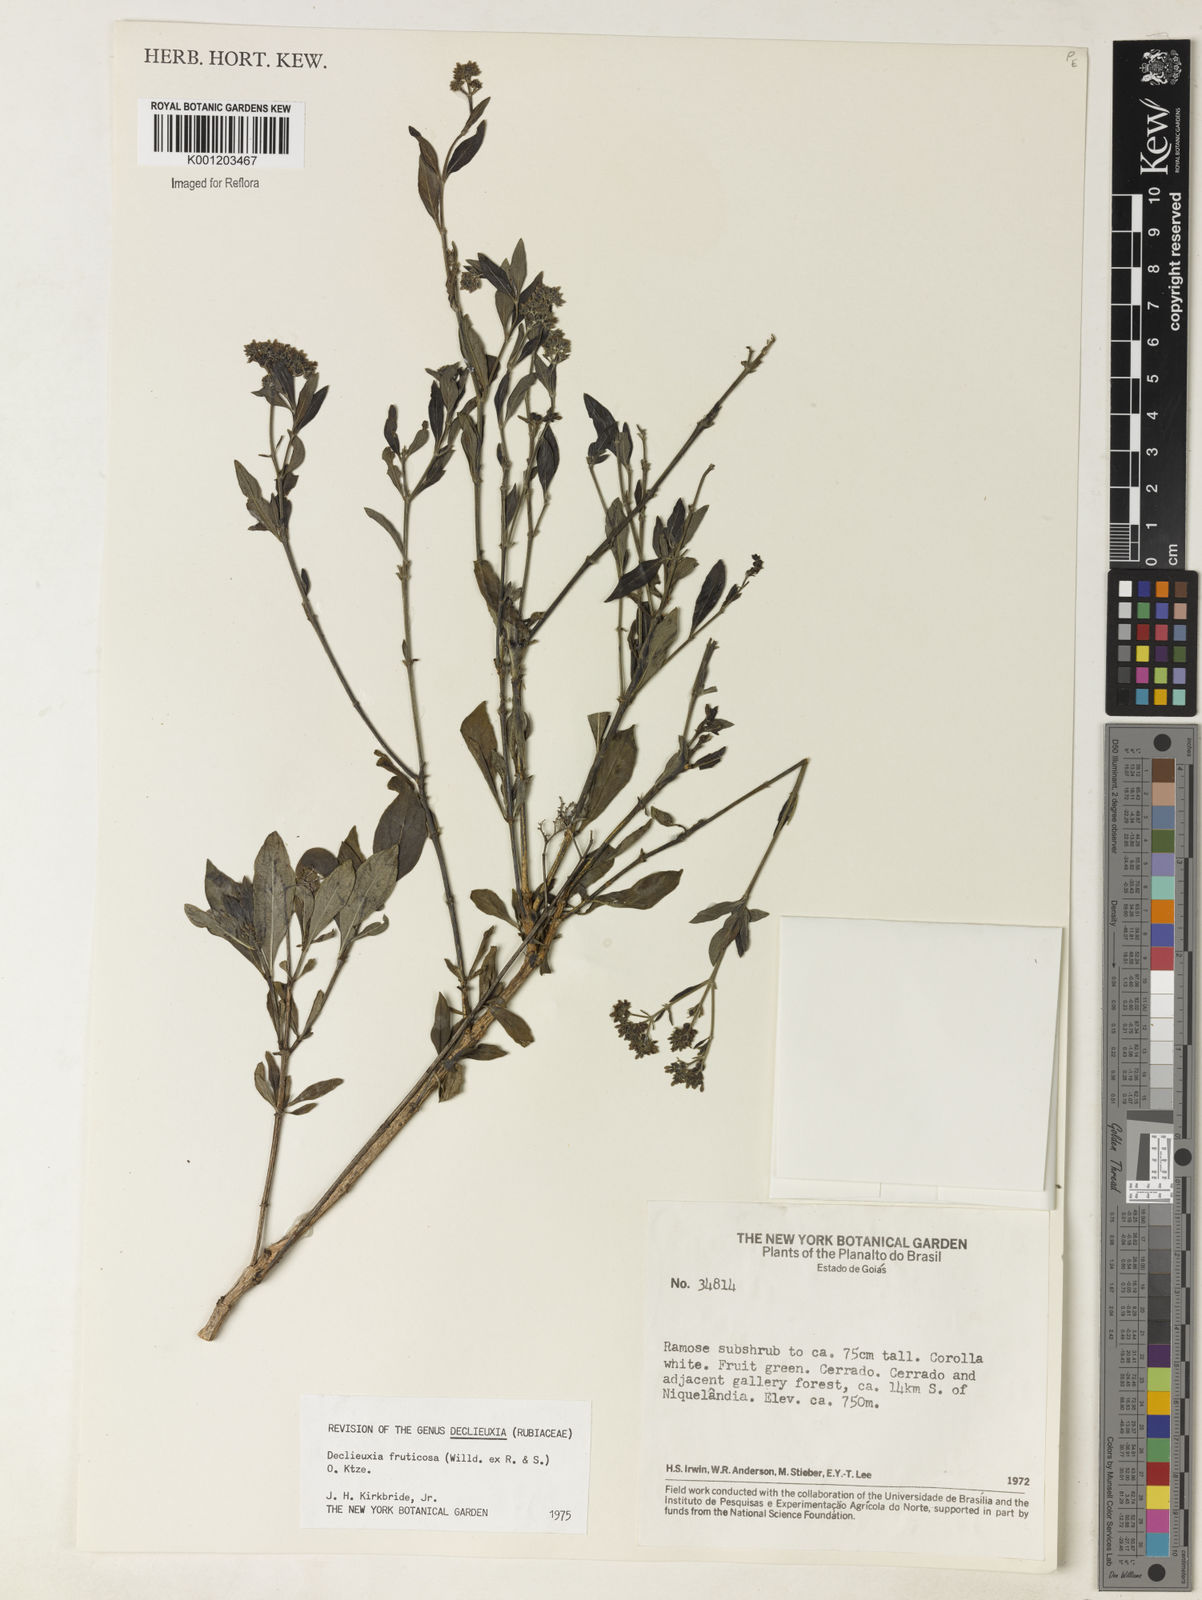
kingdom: Plantae
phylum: Tracheophyta
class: Magnoliopsida
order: Gentianales
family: Rubiaceae
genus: Declieuxia
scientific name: Declieuxia fruticosa
